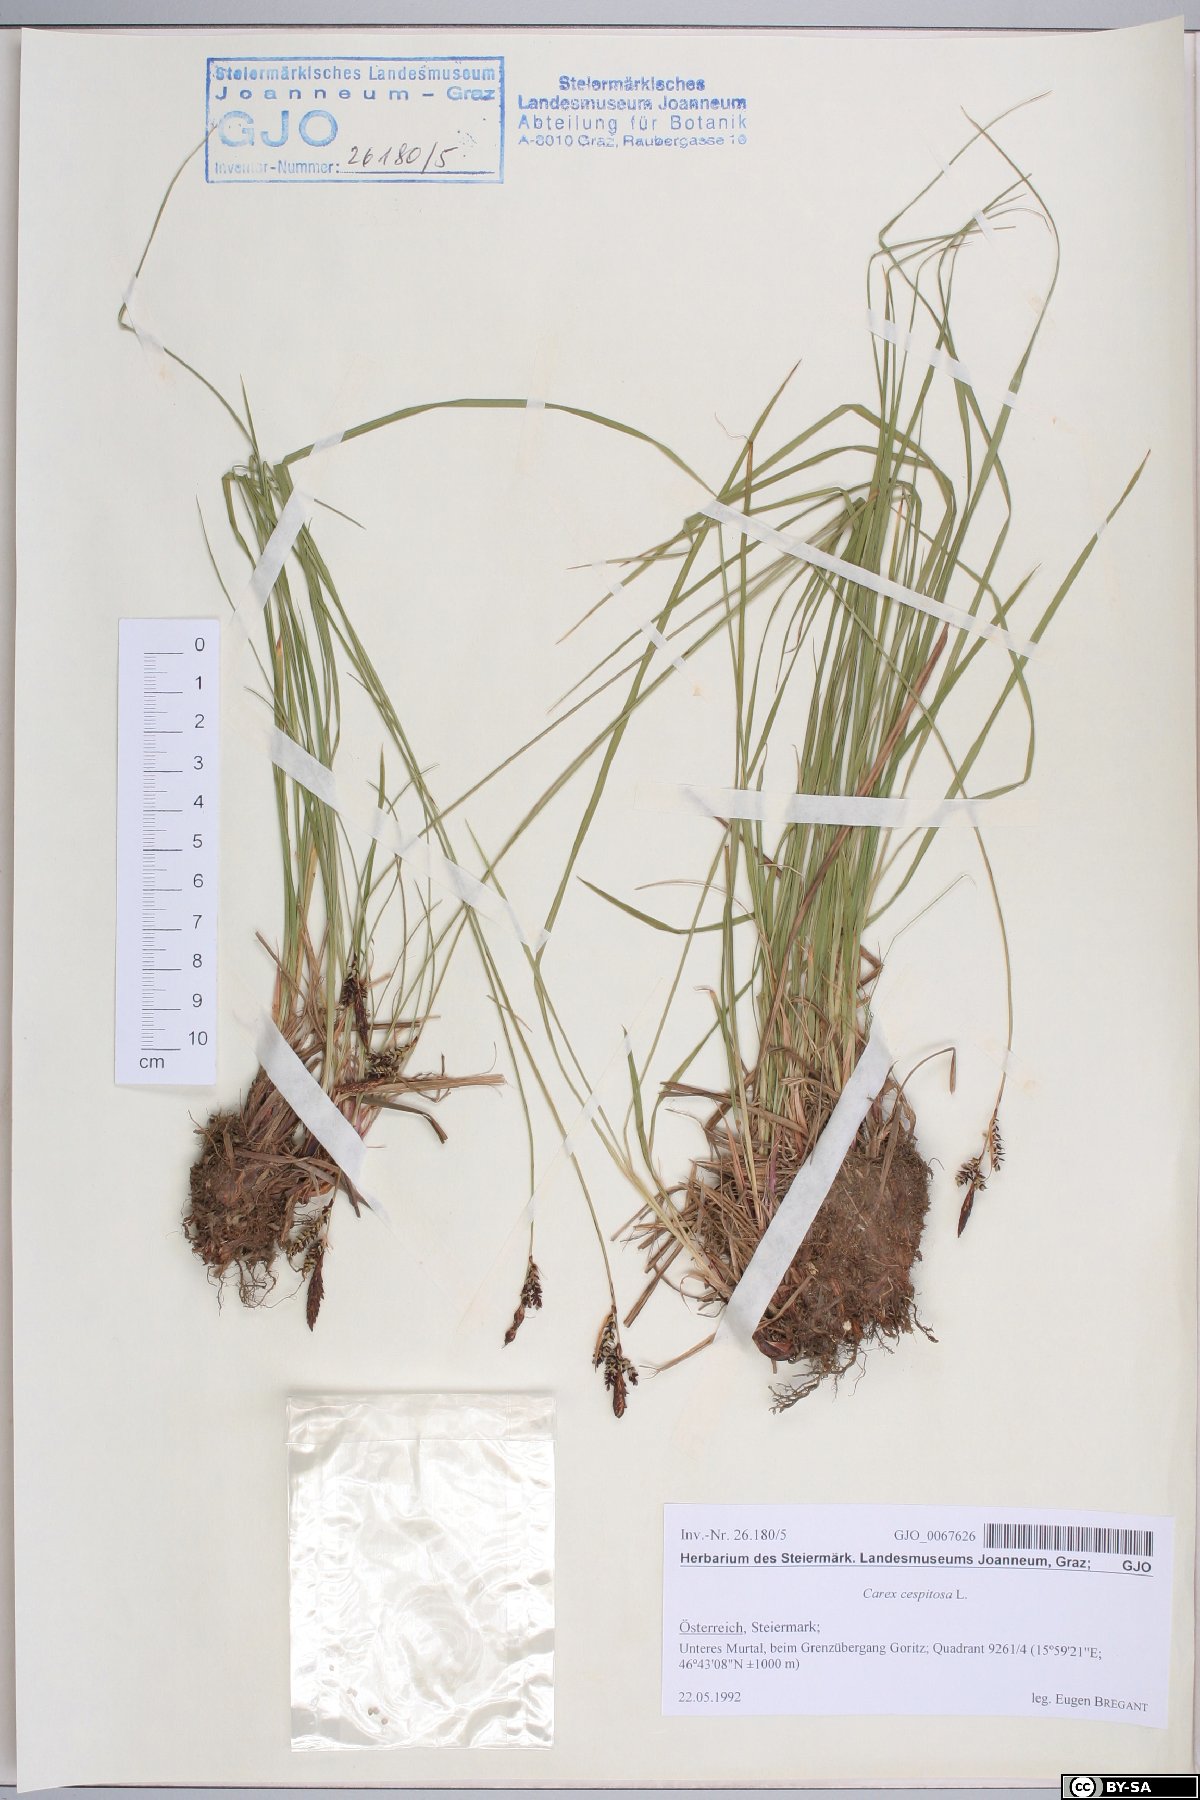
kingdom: Plantae
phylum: Tracheophyta
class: Liliopsida
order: Poales
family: Cyperaceae
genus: Carex
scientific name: Carex cespitosa
